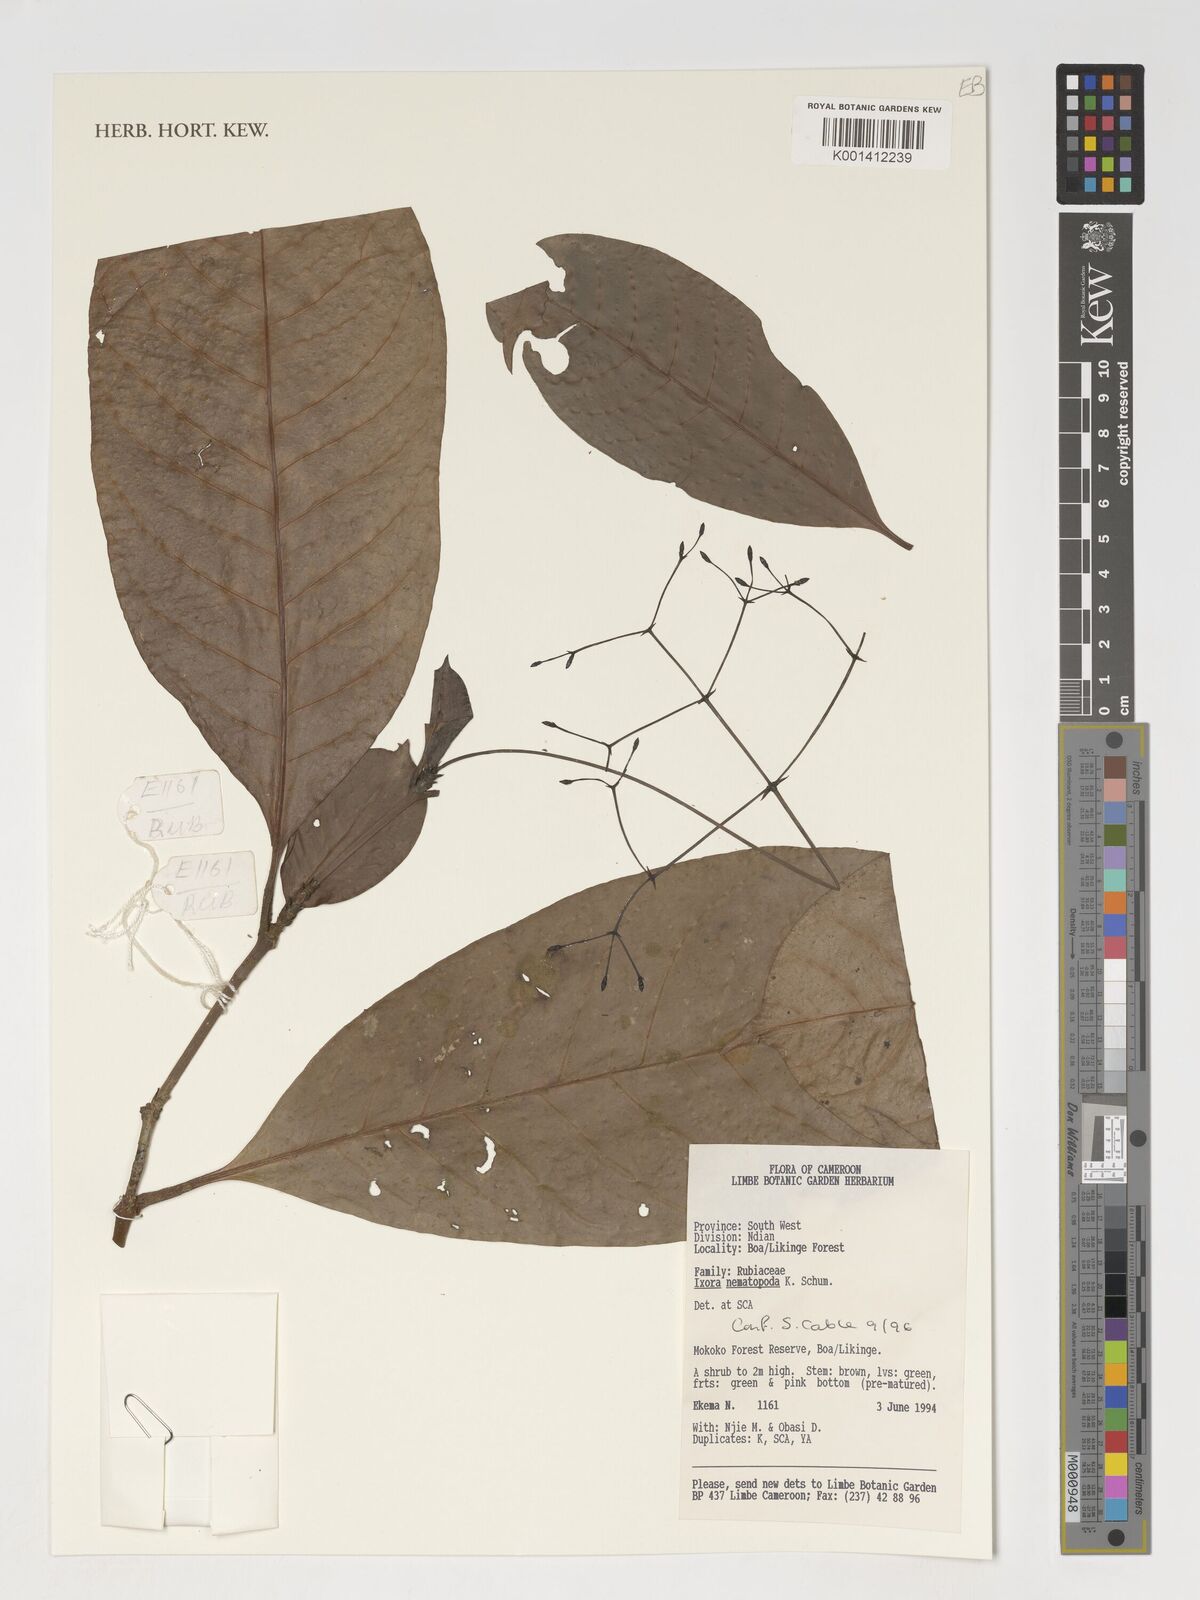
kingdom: Plantae
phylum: Tracheophyta
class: Magnoliopsida
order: Gentianales
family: Rubiaceae
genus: Ixora
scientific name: Ixora nematopoda
